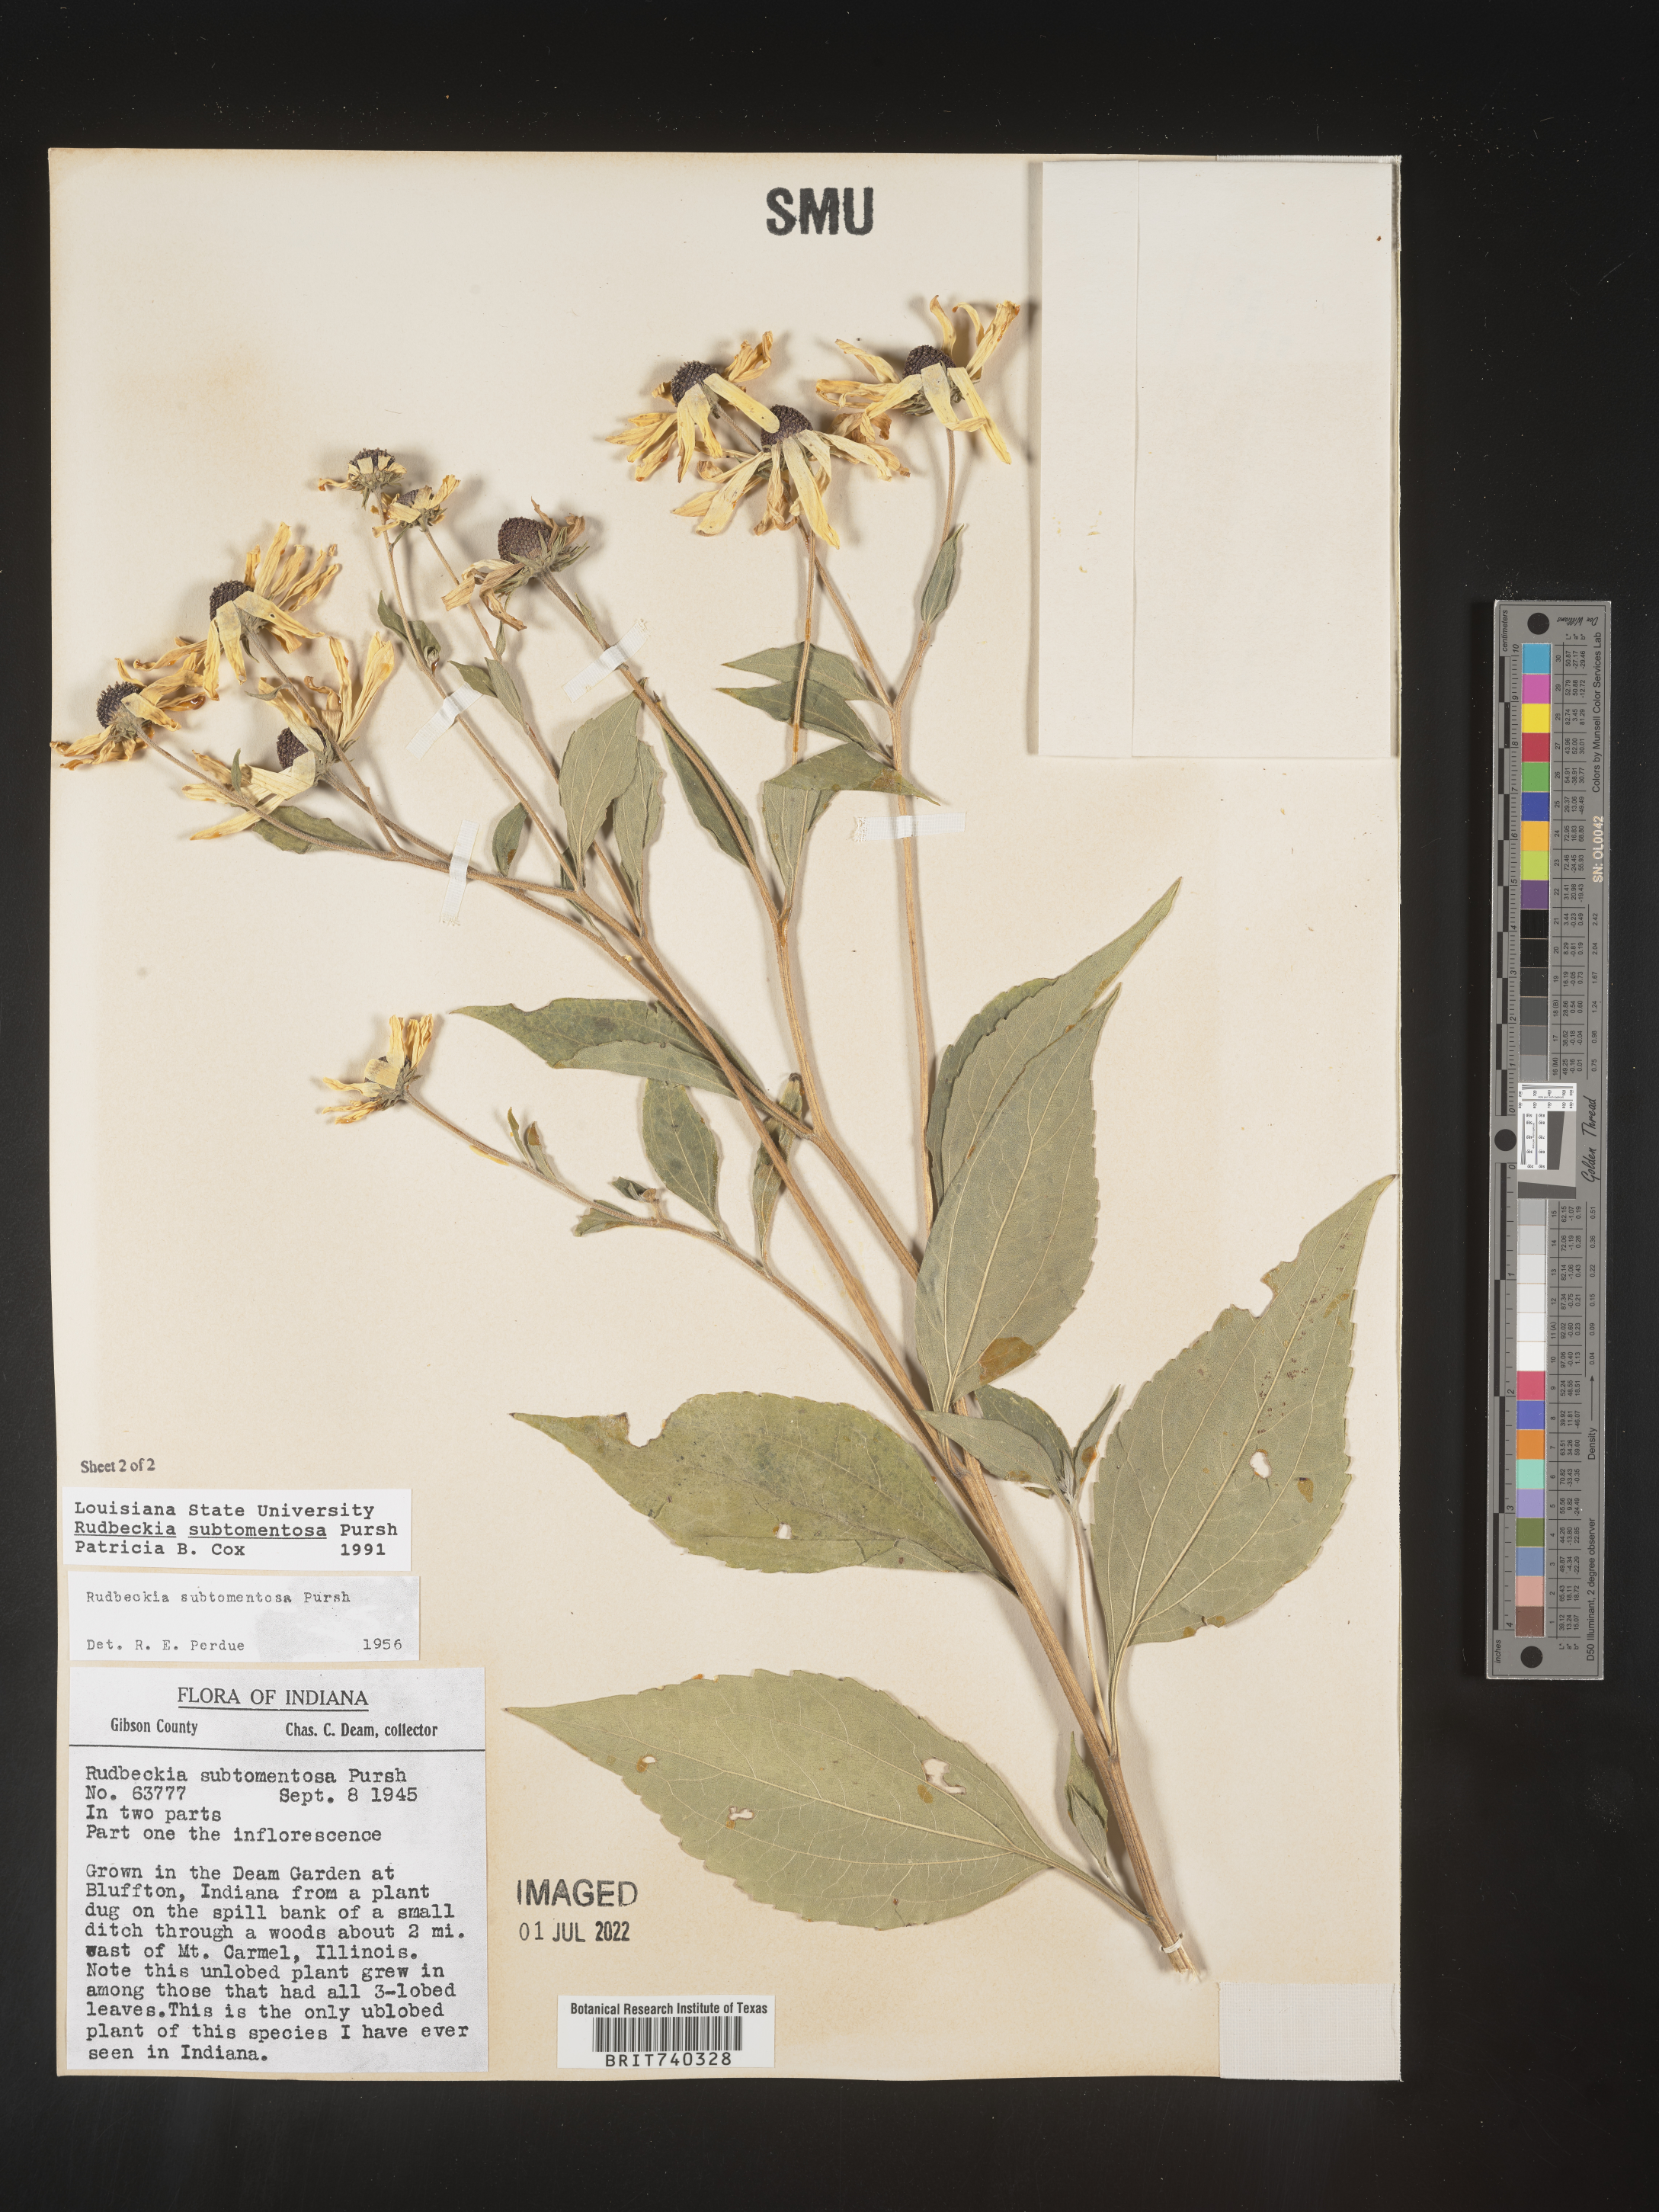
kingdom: Plantae
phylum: Tracheophyta
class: Magnoliopsida
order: Asterales
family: Asteraceae
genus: Rudbeckia
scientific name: Rudbeckia subtomentosa
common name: Sweet coneflower
